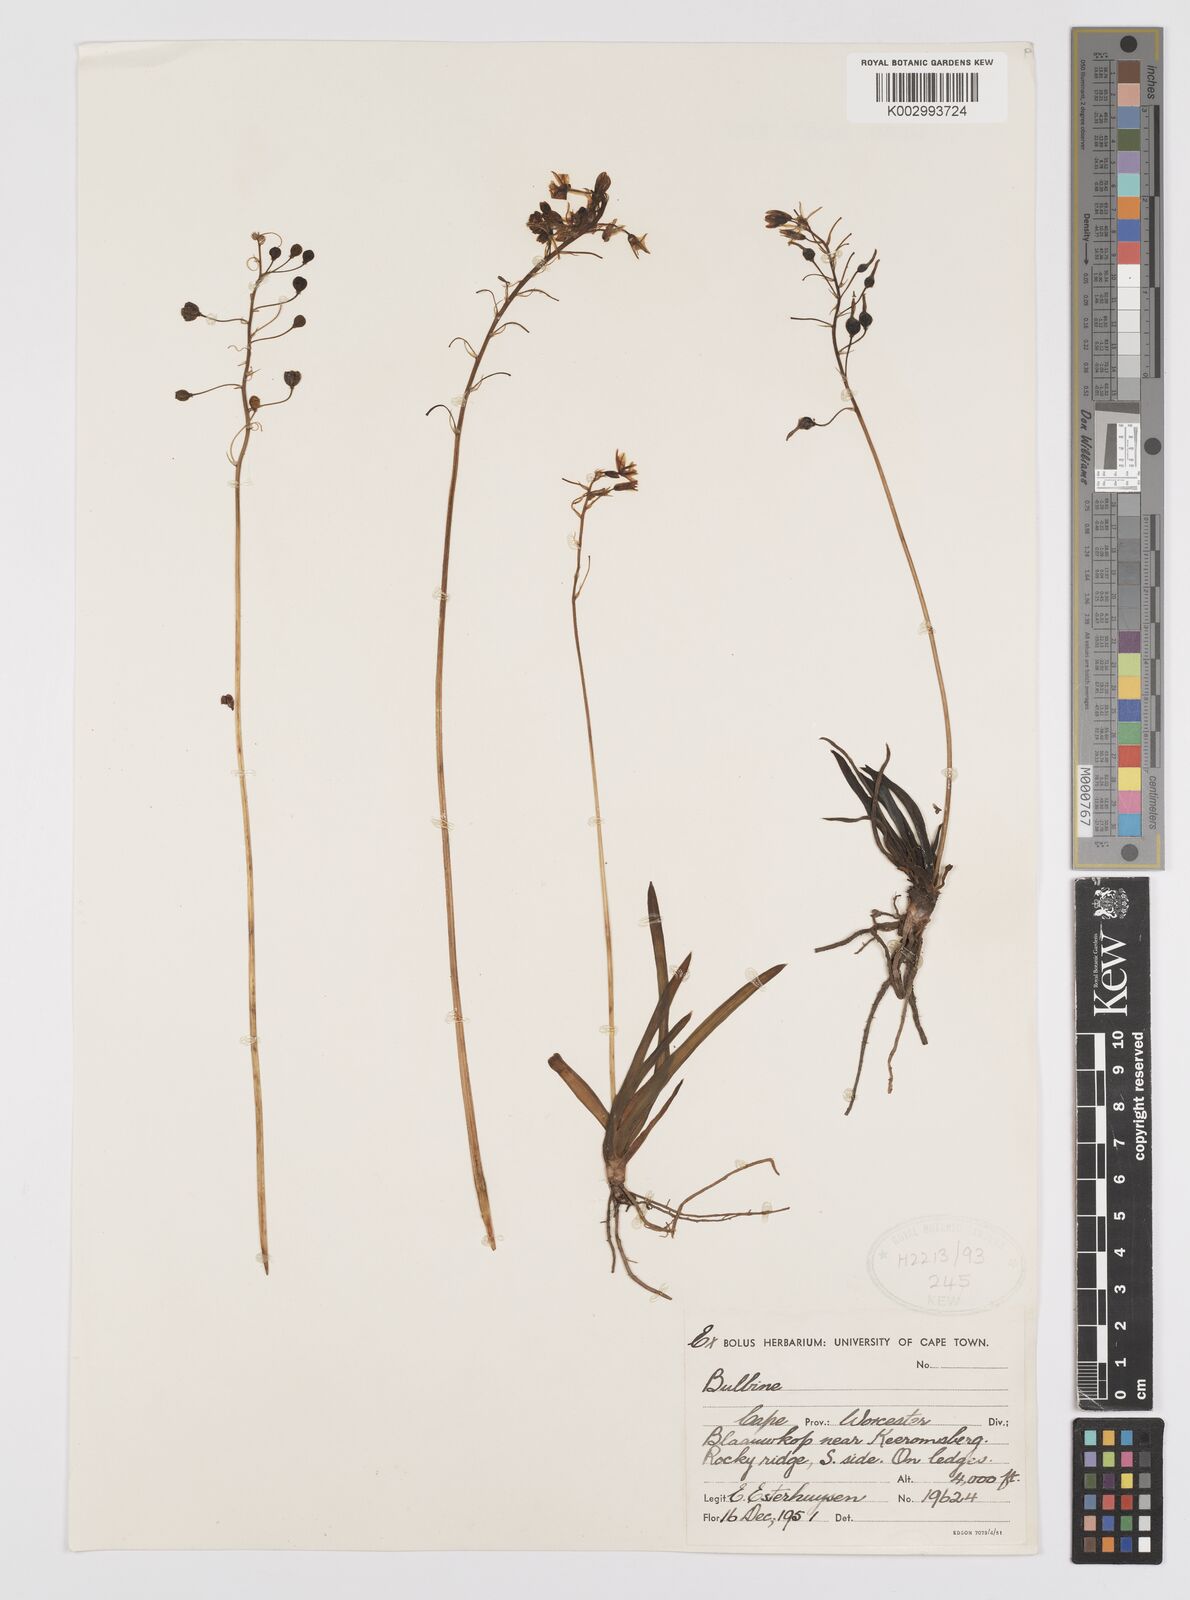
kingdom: Plantae
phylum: Tracheophyta
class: Liliopsida
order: Asparagales
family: Amaryllidaceae
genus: Crinum
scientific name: Crinum
